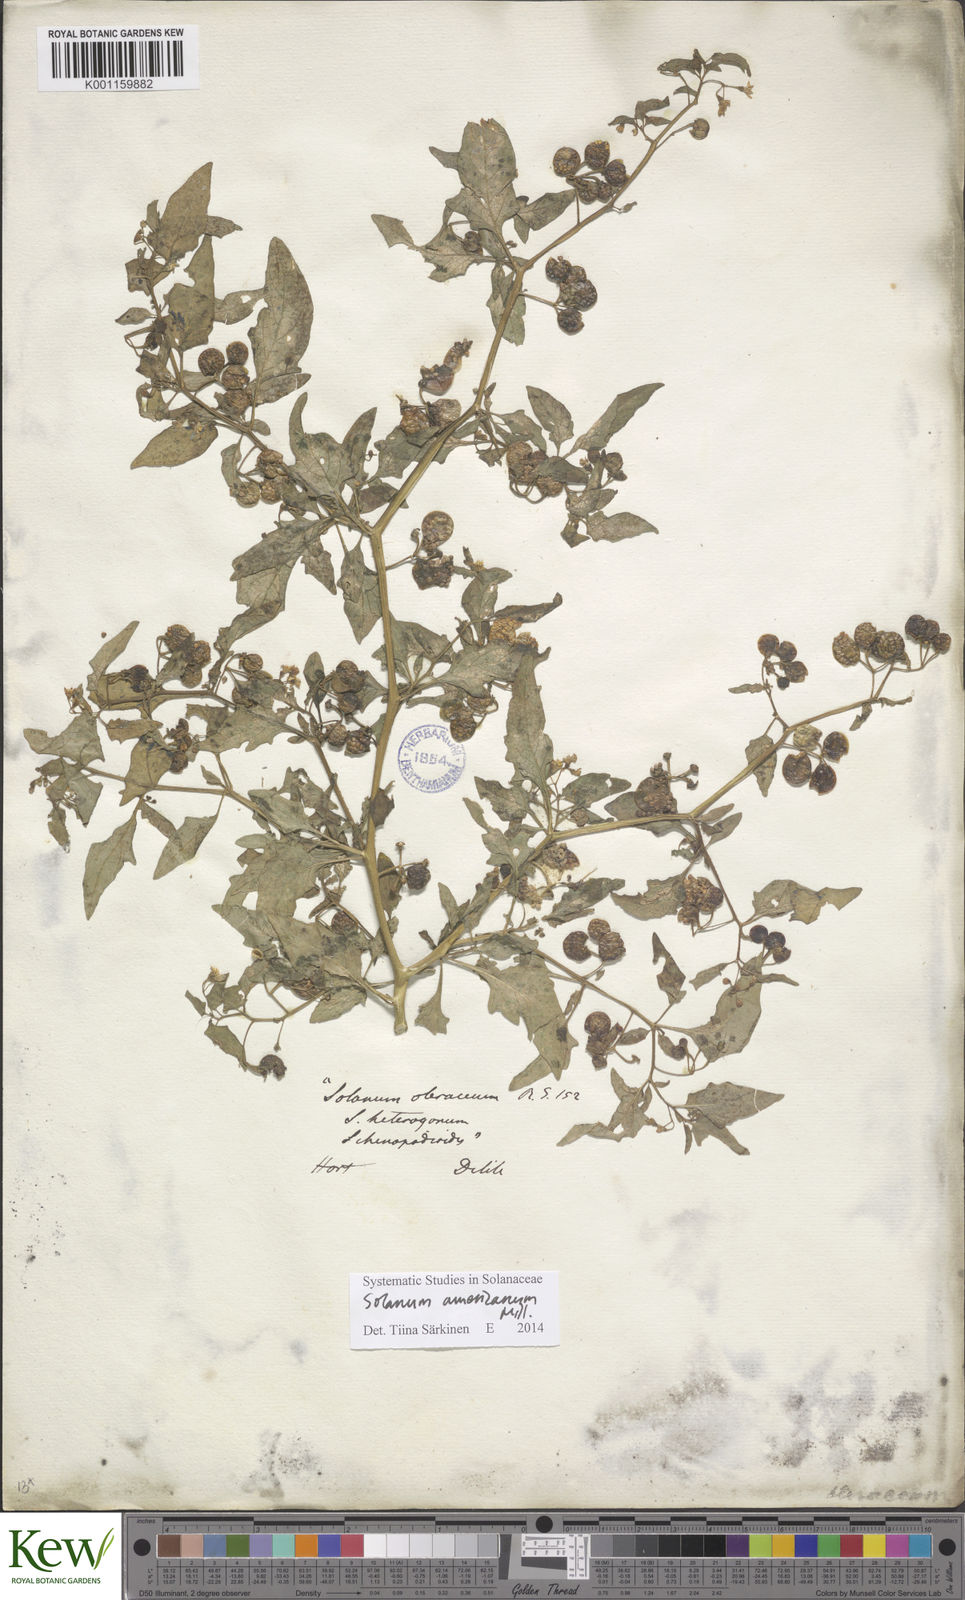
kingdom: Plantae
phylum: Tracheophyta
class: Magnoliopsida
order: Solanales
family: Solanaceae
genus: Solanum
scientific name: Solanum americanum
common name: American black nightshade
